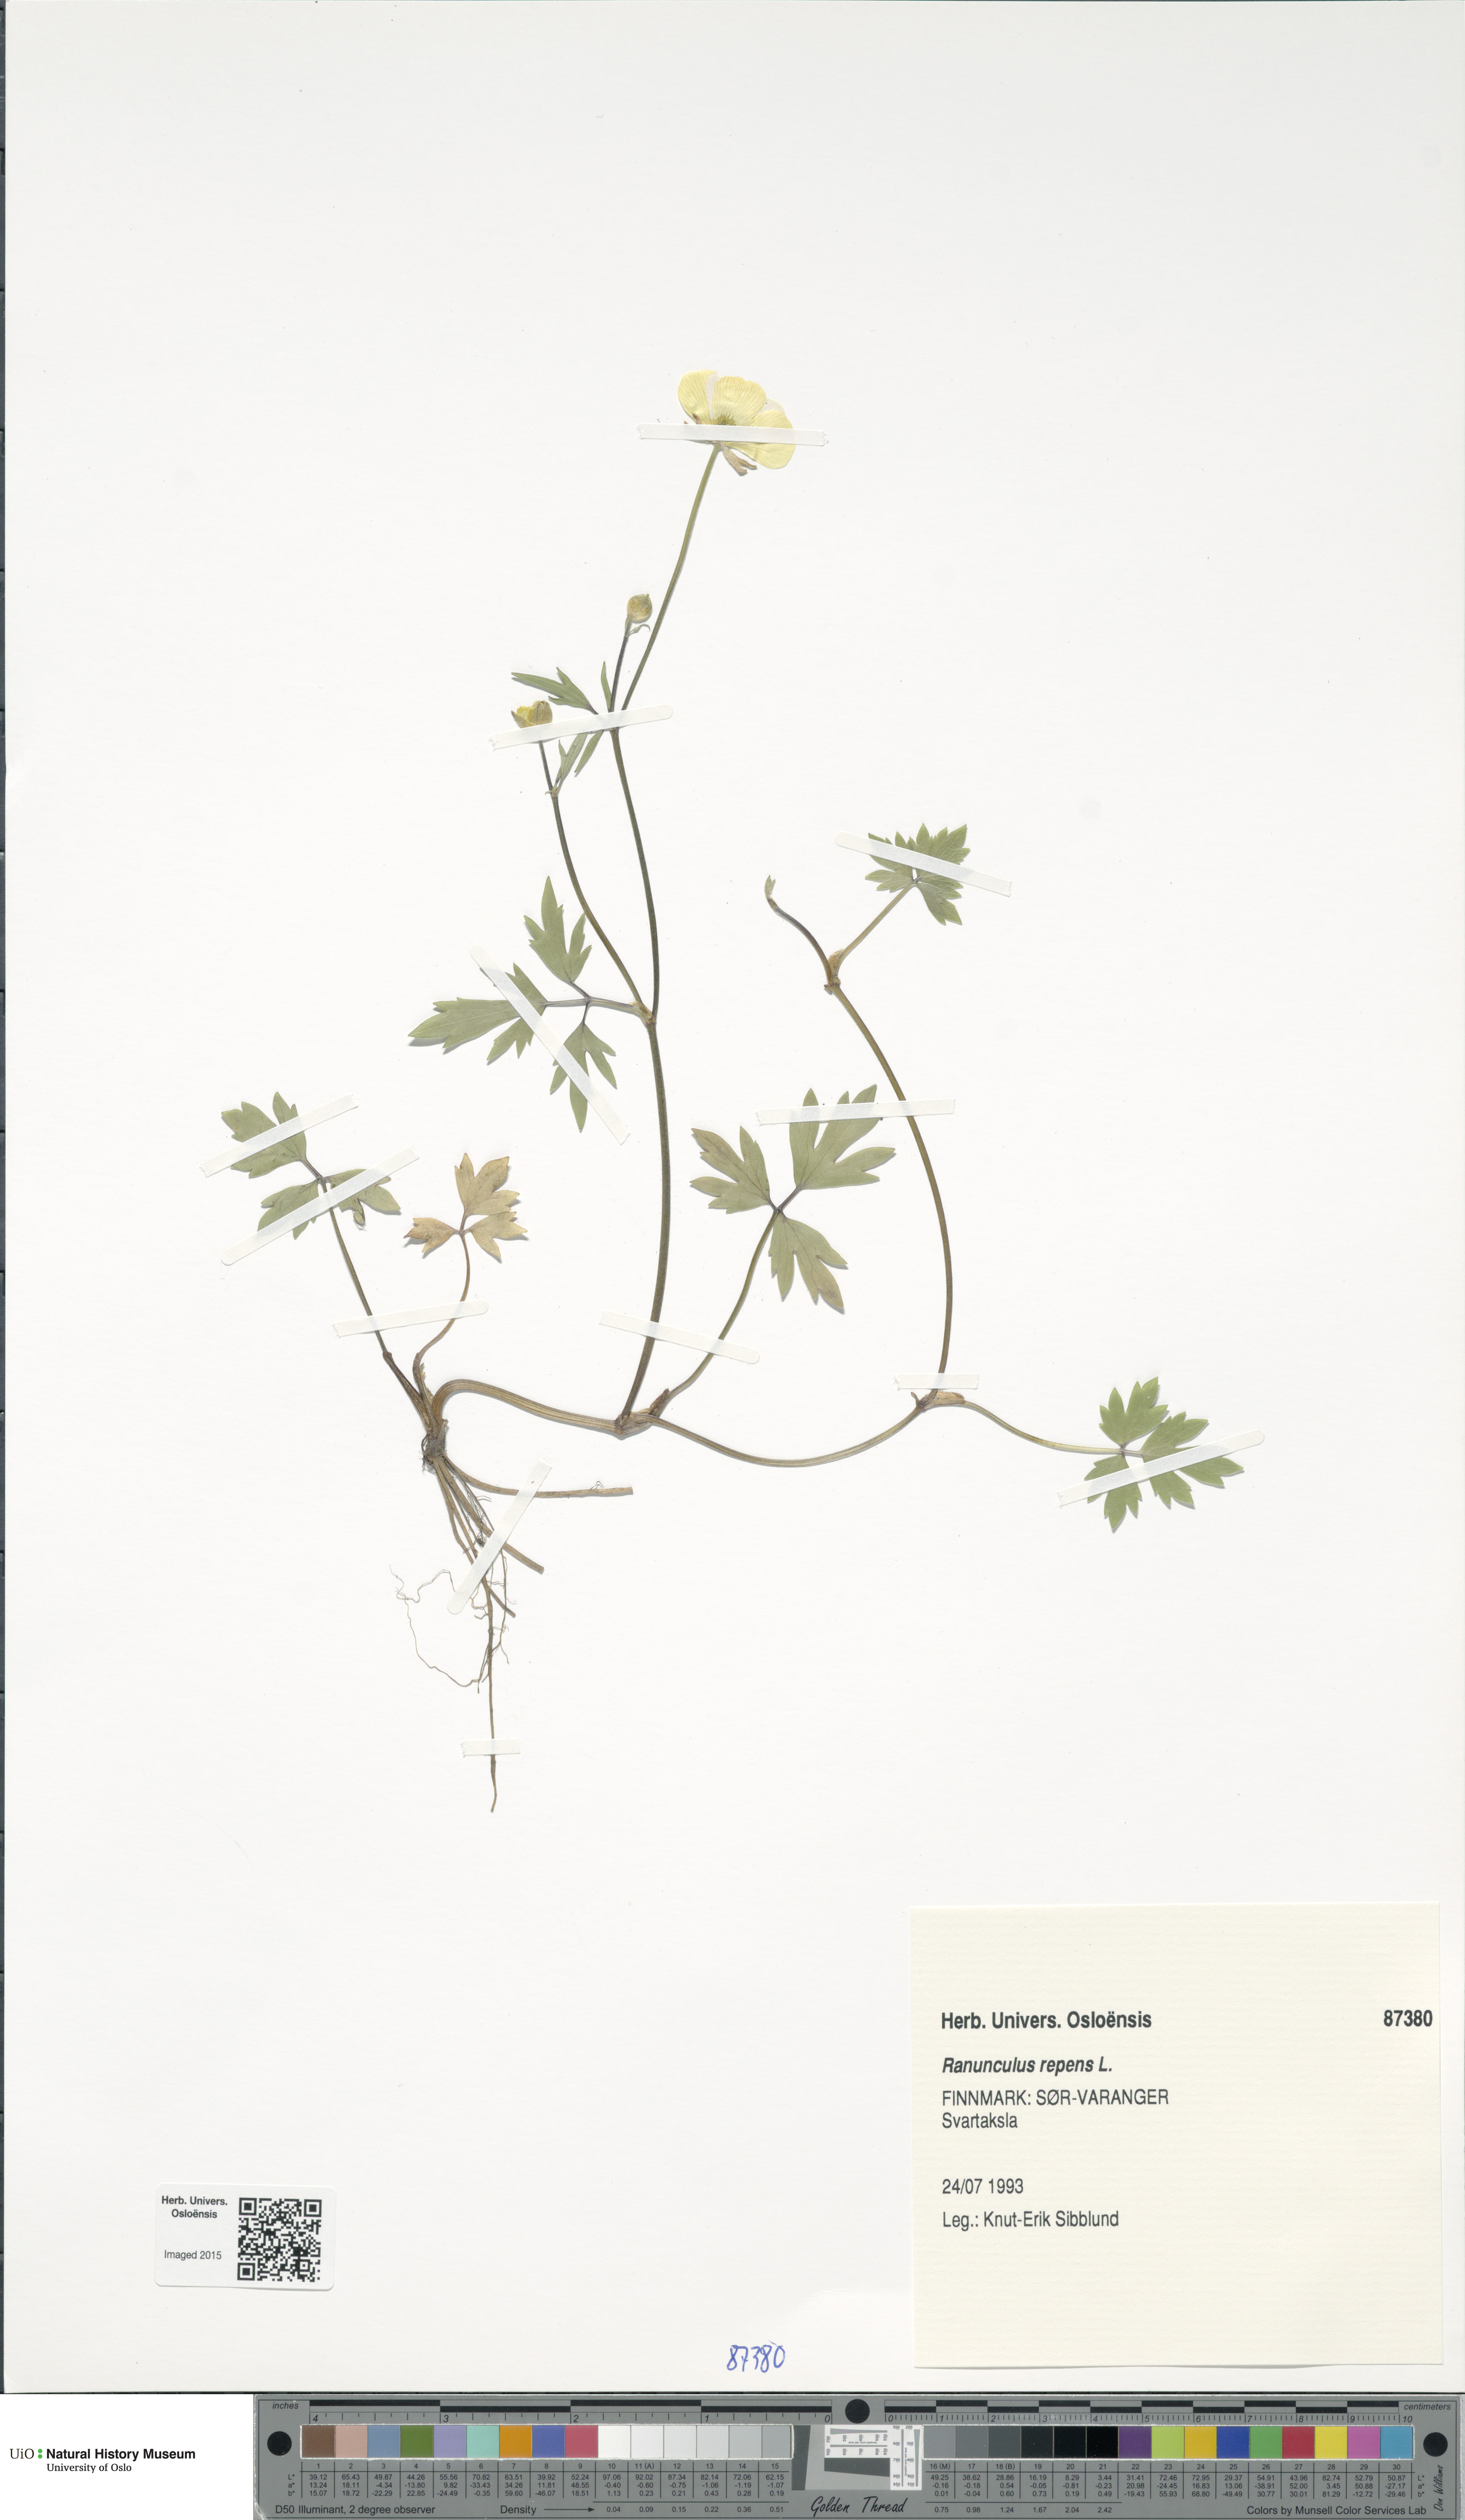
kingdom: Plantae
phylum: Tracheophyta
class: Magnoliopsida
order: Ranunculales
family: Ranunculaceae
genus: Ranunculus
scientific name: Ranunculus repens
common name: Creeping buttercup
